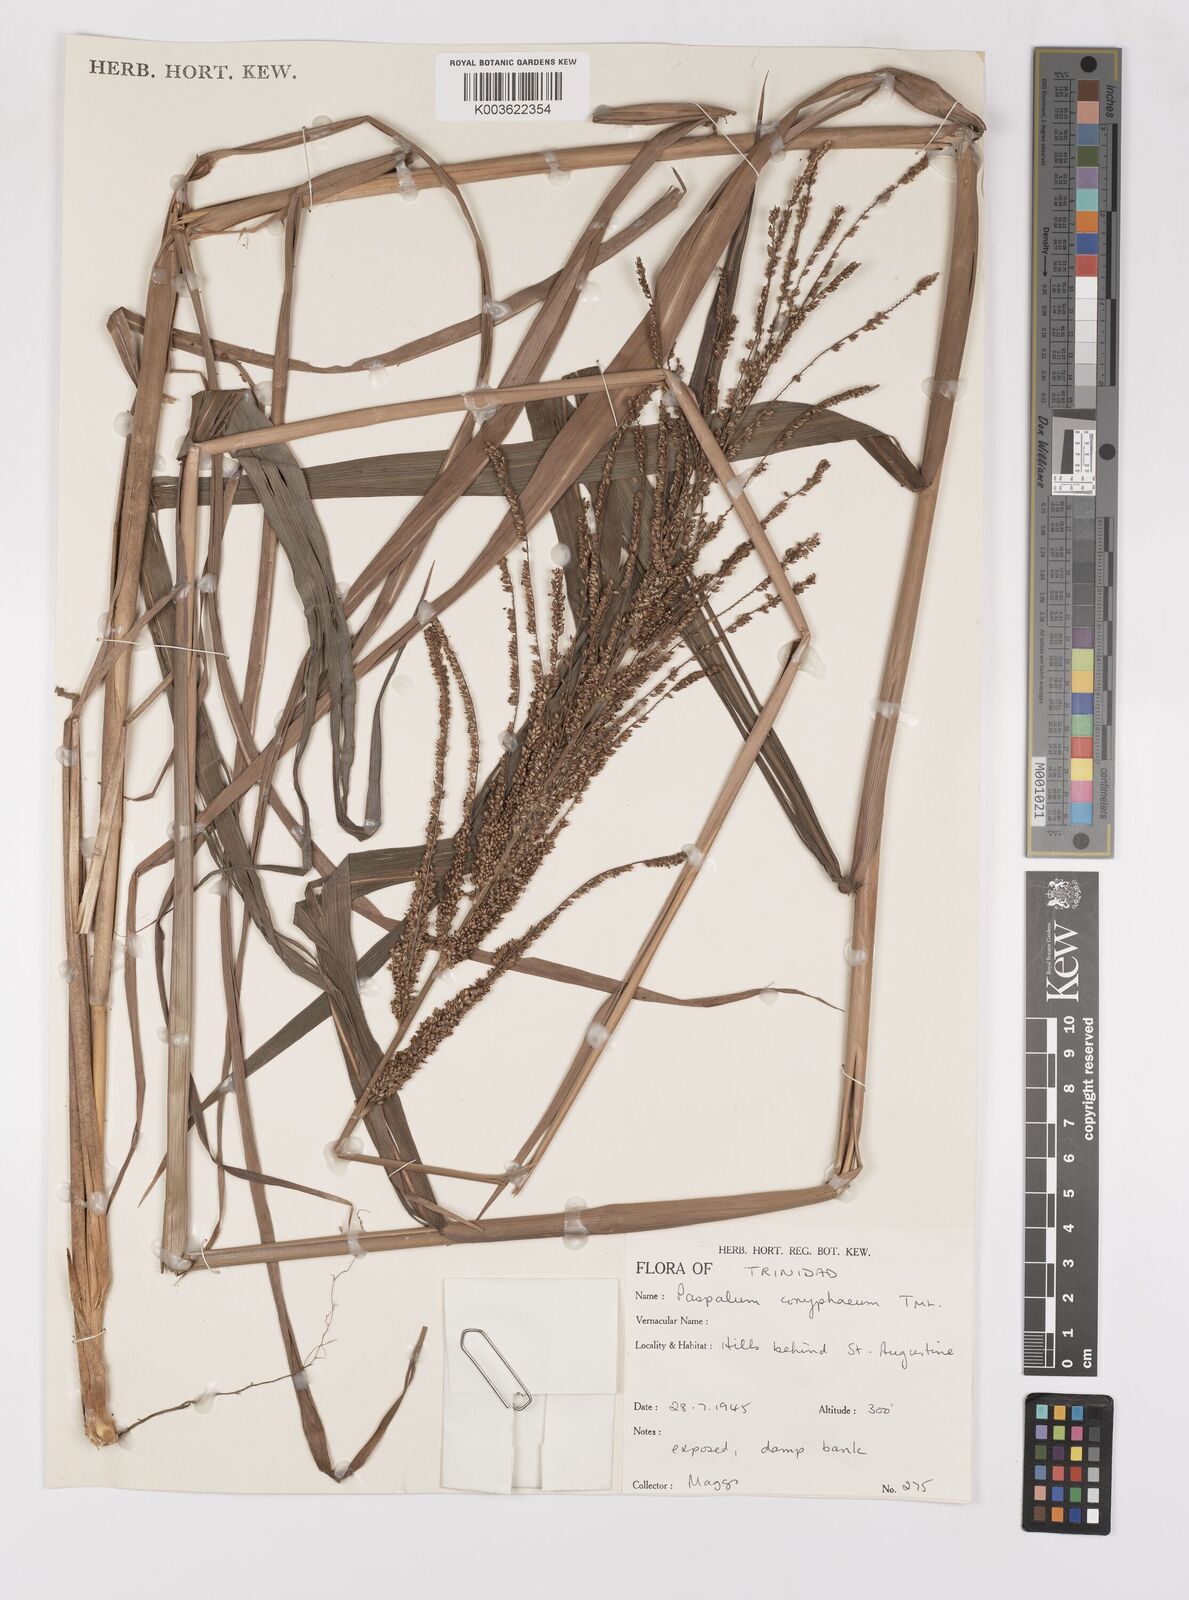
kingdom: Plantae
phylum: Tracheophyta
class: Liliopsida
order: Poales
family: Poaceae
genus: Paspalum
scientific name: Paspalum coryphaeum
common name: Emperor crowngrass
